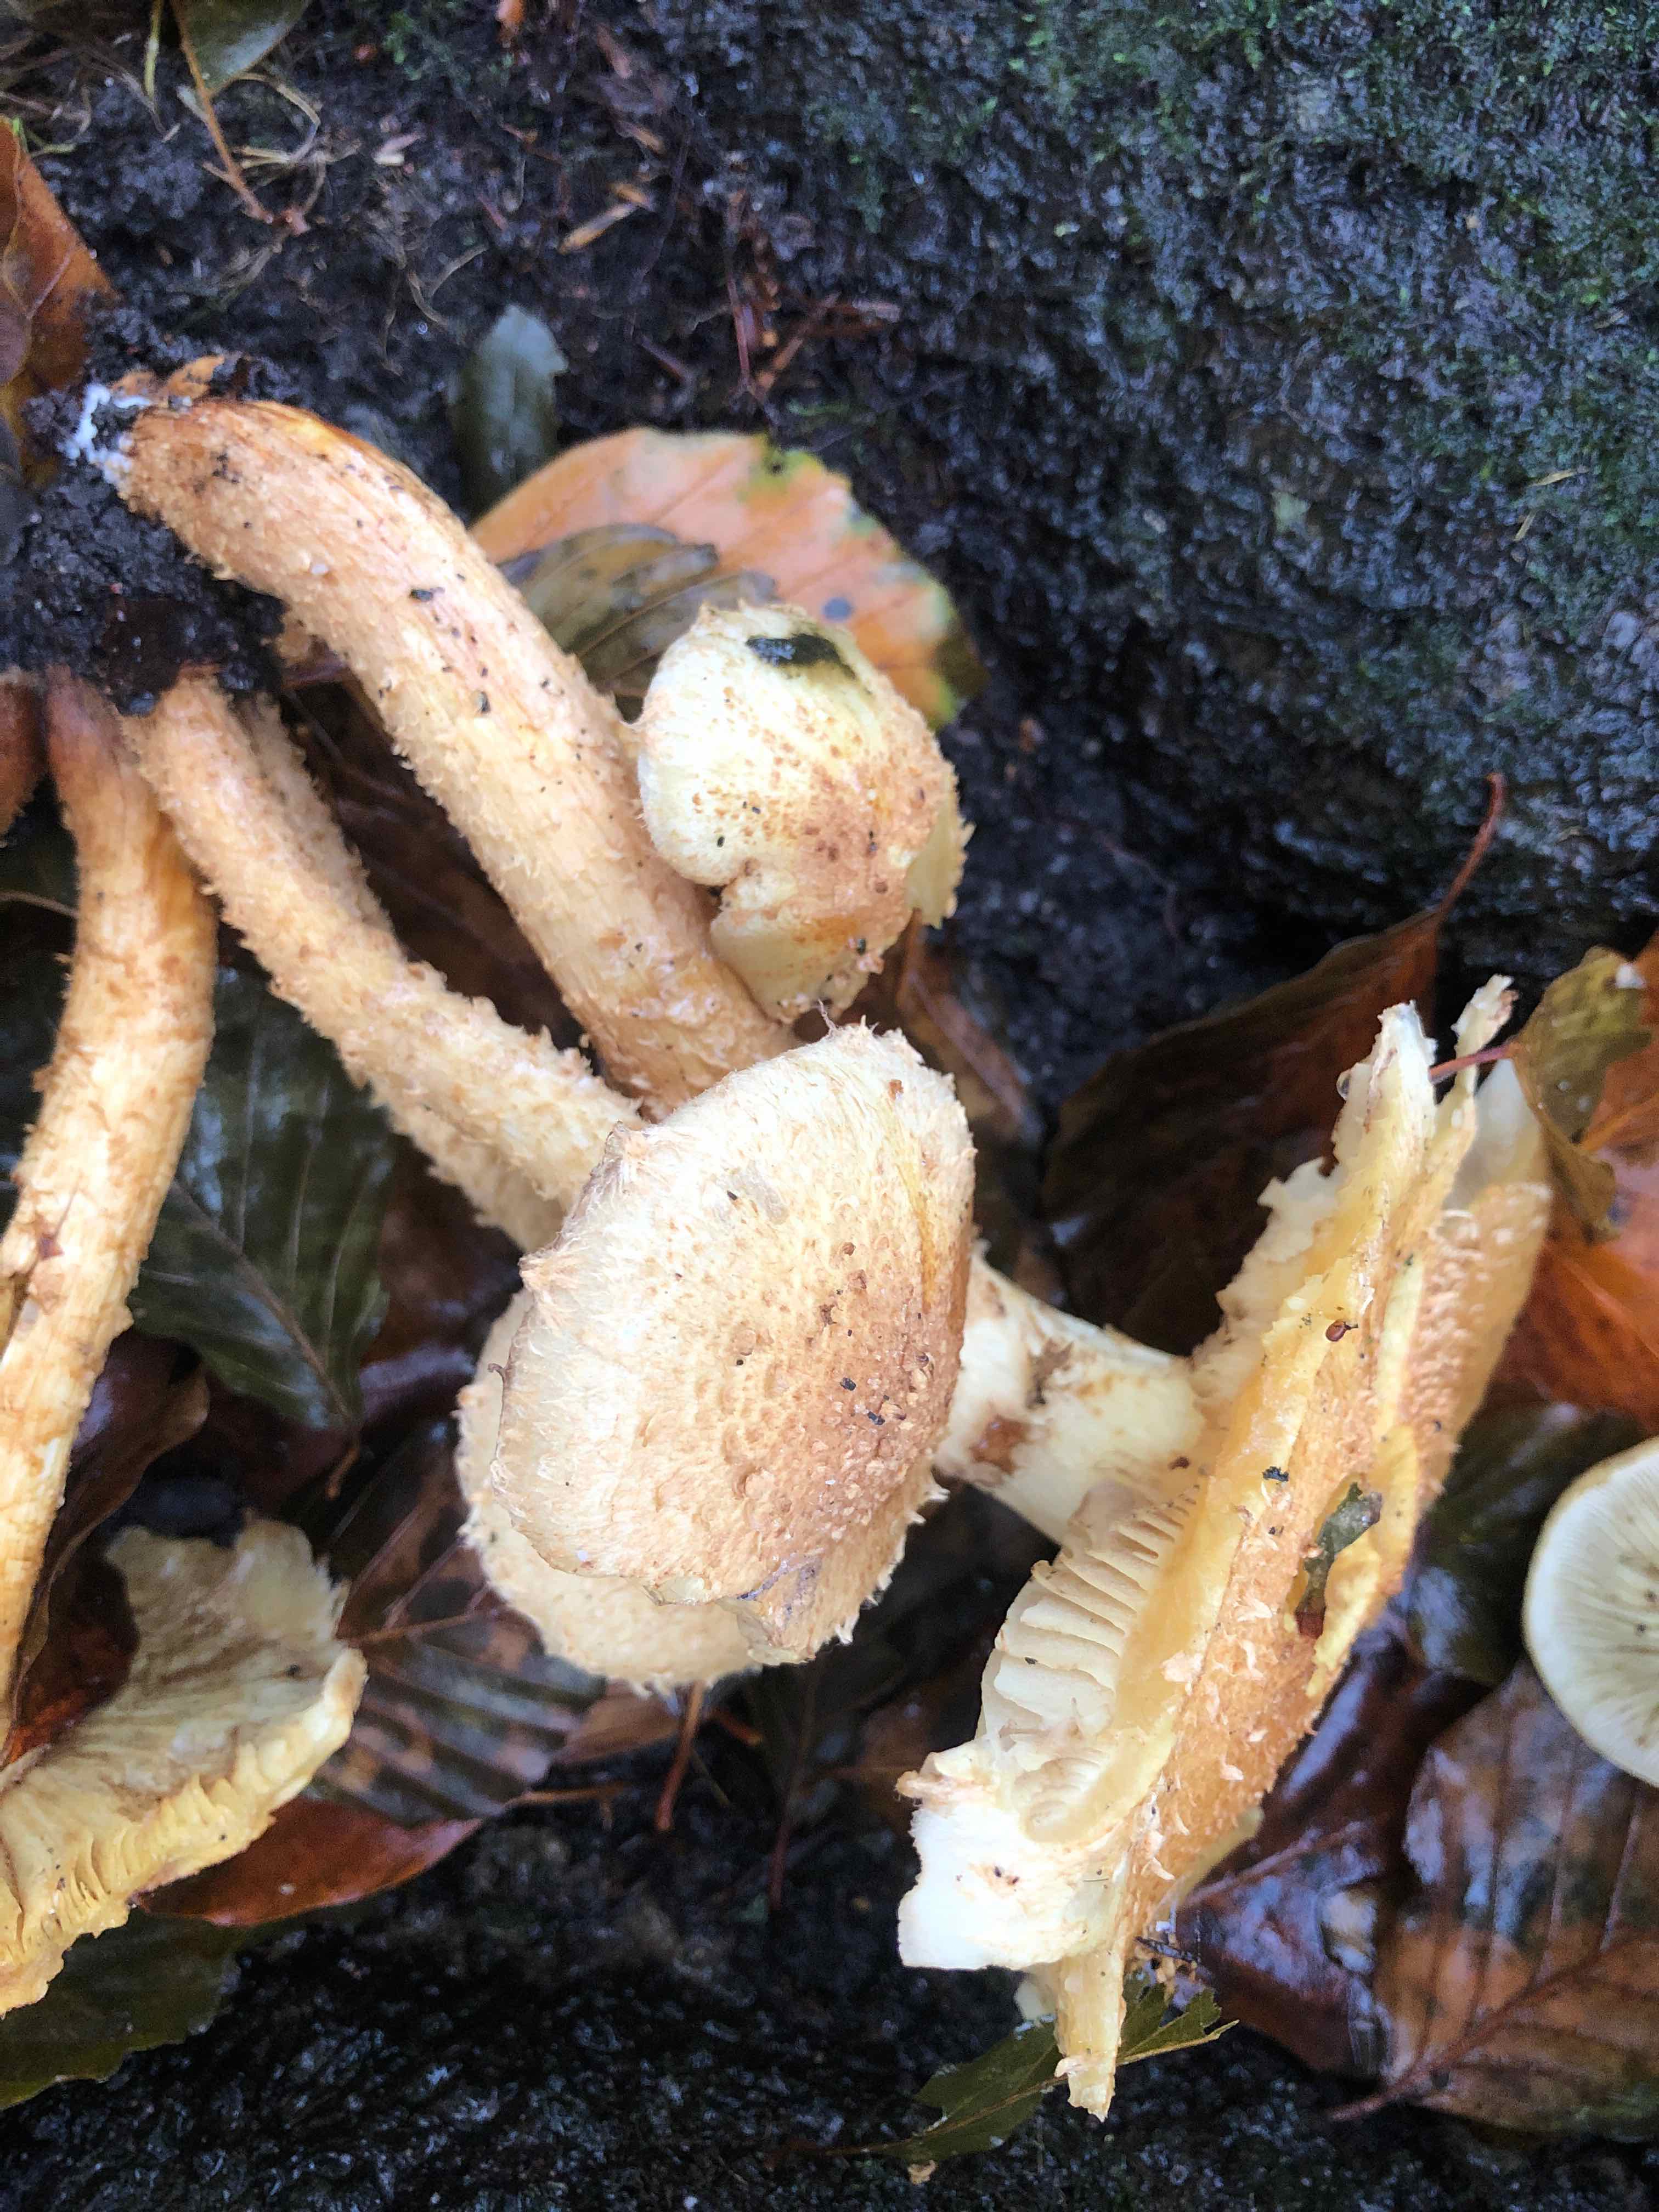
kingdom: Fungi
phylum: Basidiomycota
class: Agaricomycetes
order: Agaricales
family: Strophariaceae
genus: Pholiota
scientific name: Pholiota squarrosa
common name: krumskællet skælhat
